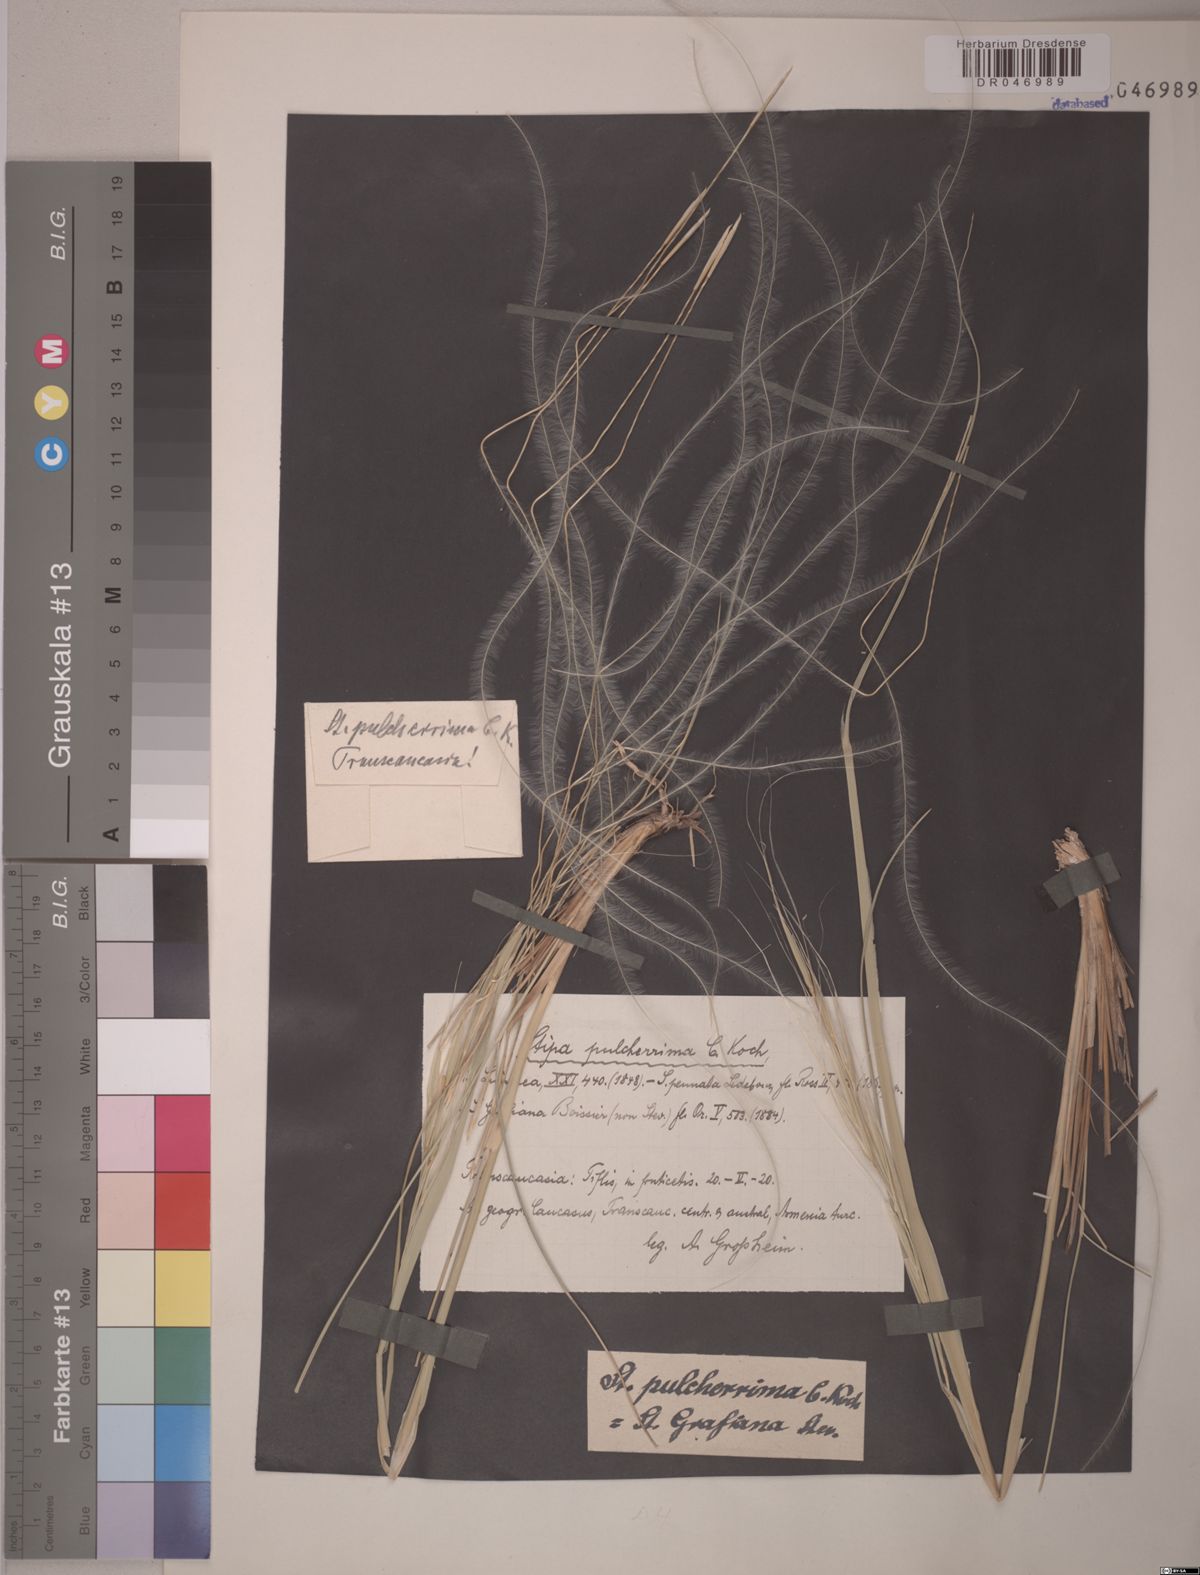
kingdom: Plantae
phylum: Tracheophyta
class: Liliopsida
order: Poales
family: Poaceae
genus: Stipa
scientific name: Stipa pulcherrima
